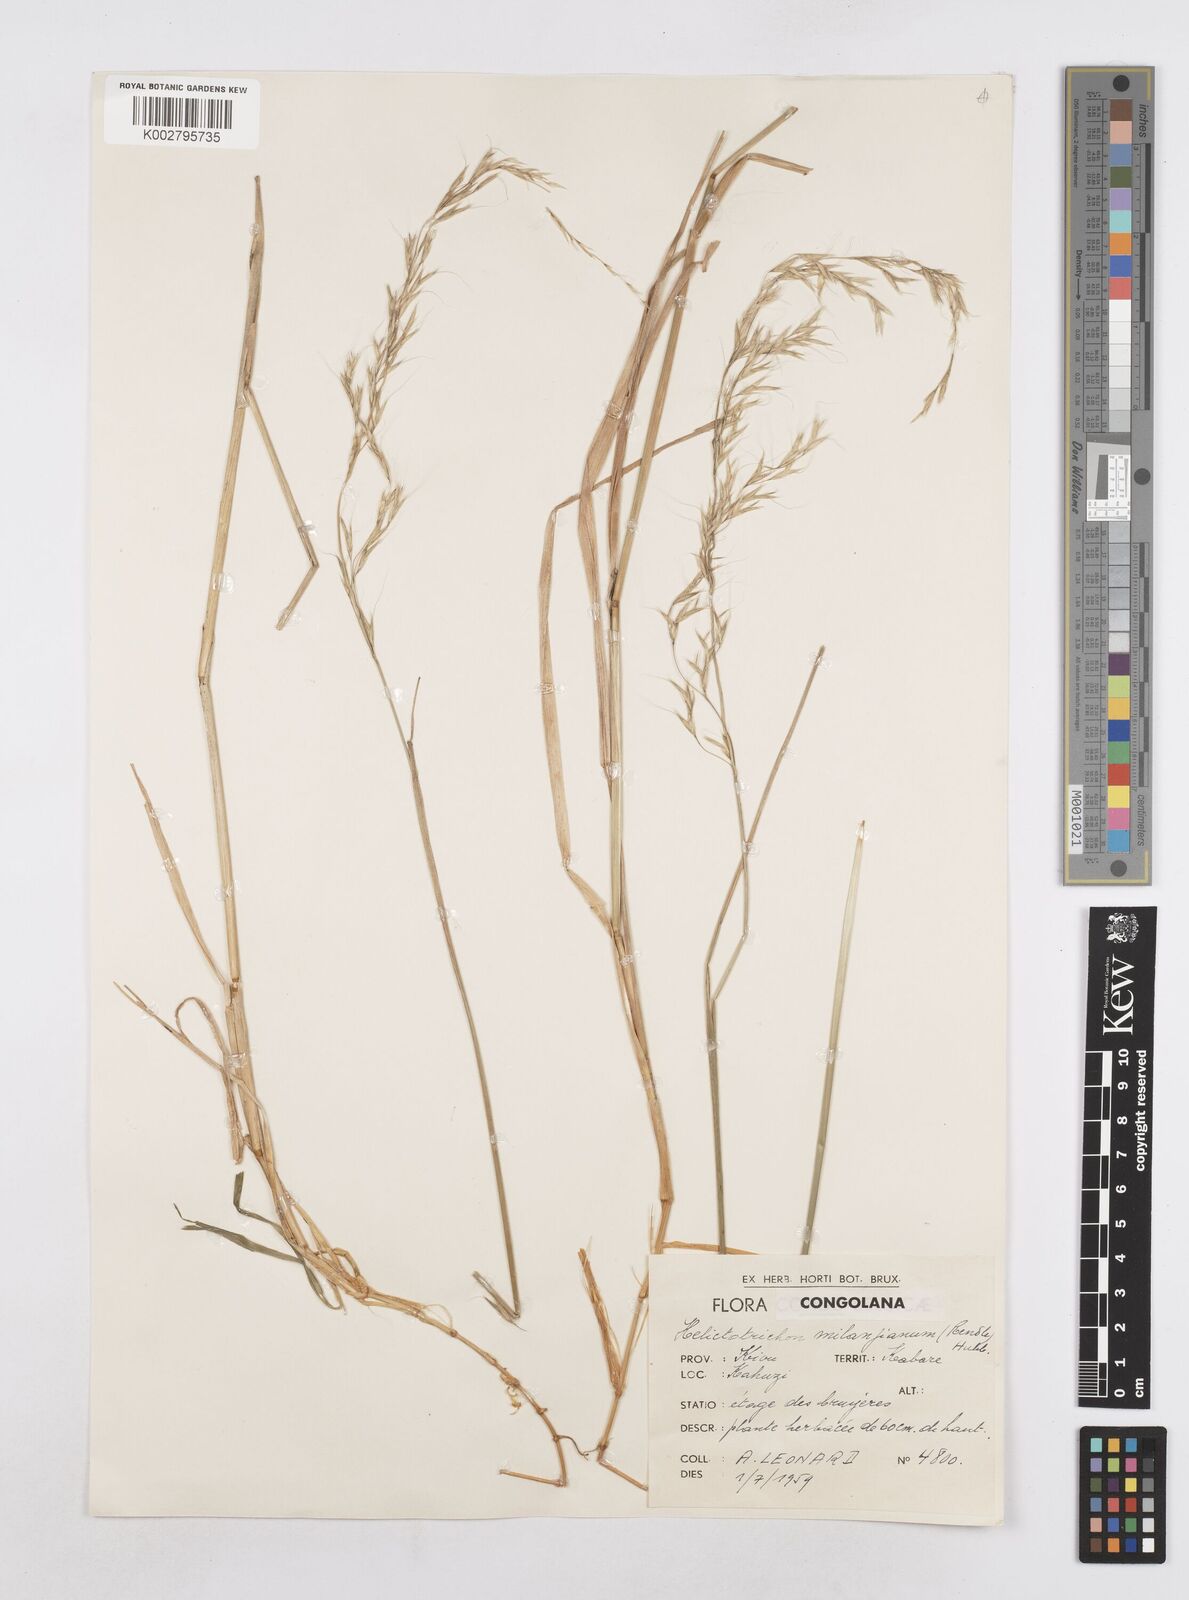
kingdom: Plantae
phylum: Tracheophyta
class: Liliopsida
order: Poales
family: Poaceae
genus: Trisetopsis
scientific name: Trisetopsis milanjiana
